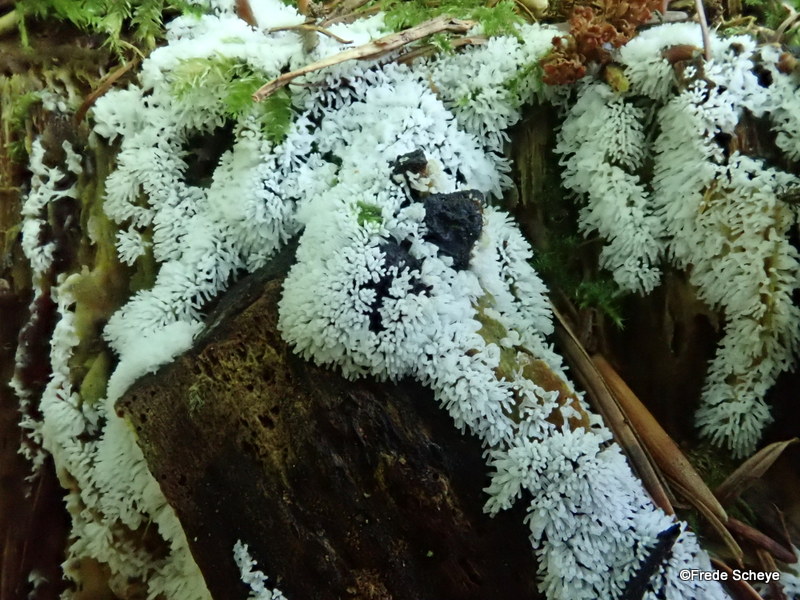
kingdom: Protozoa
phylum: Mycetozoa
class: Protosteliomycetes
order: Ceratiomyxales
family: Ceratiomyxaceae
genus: Ceratiomyxa
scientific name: Ceratiomyxa fruticulosa
